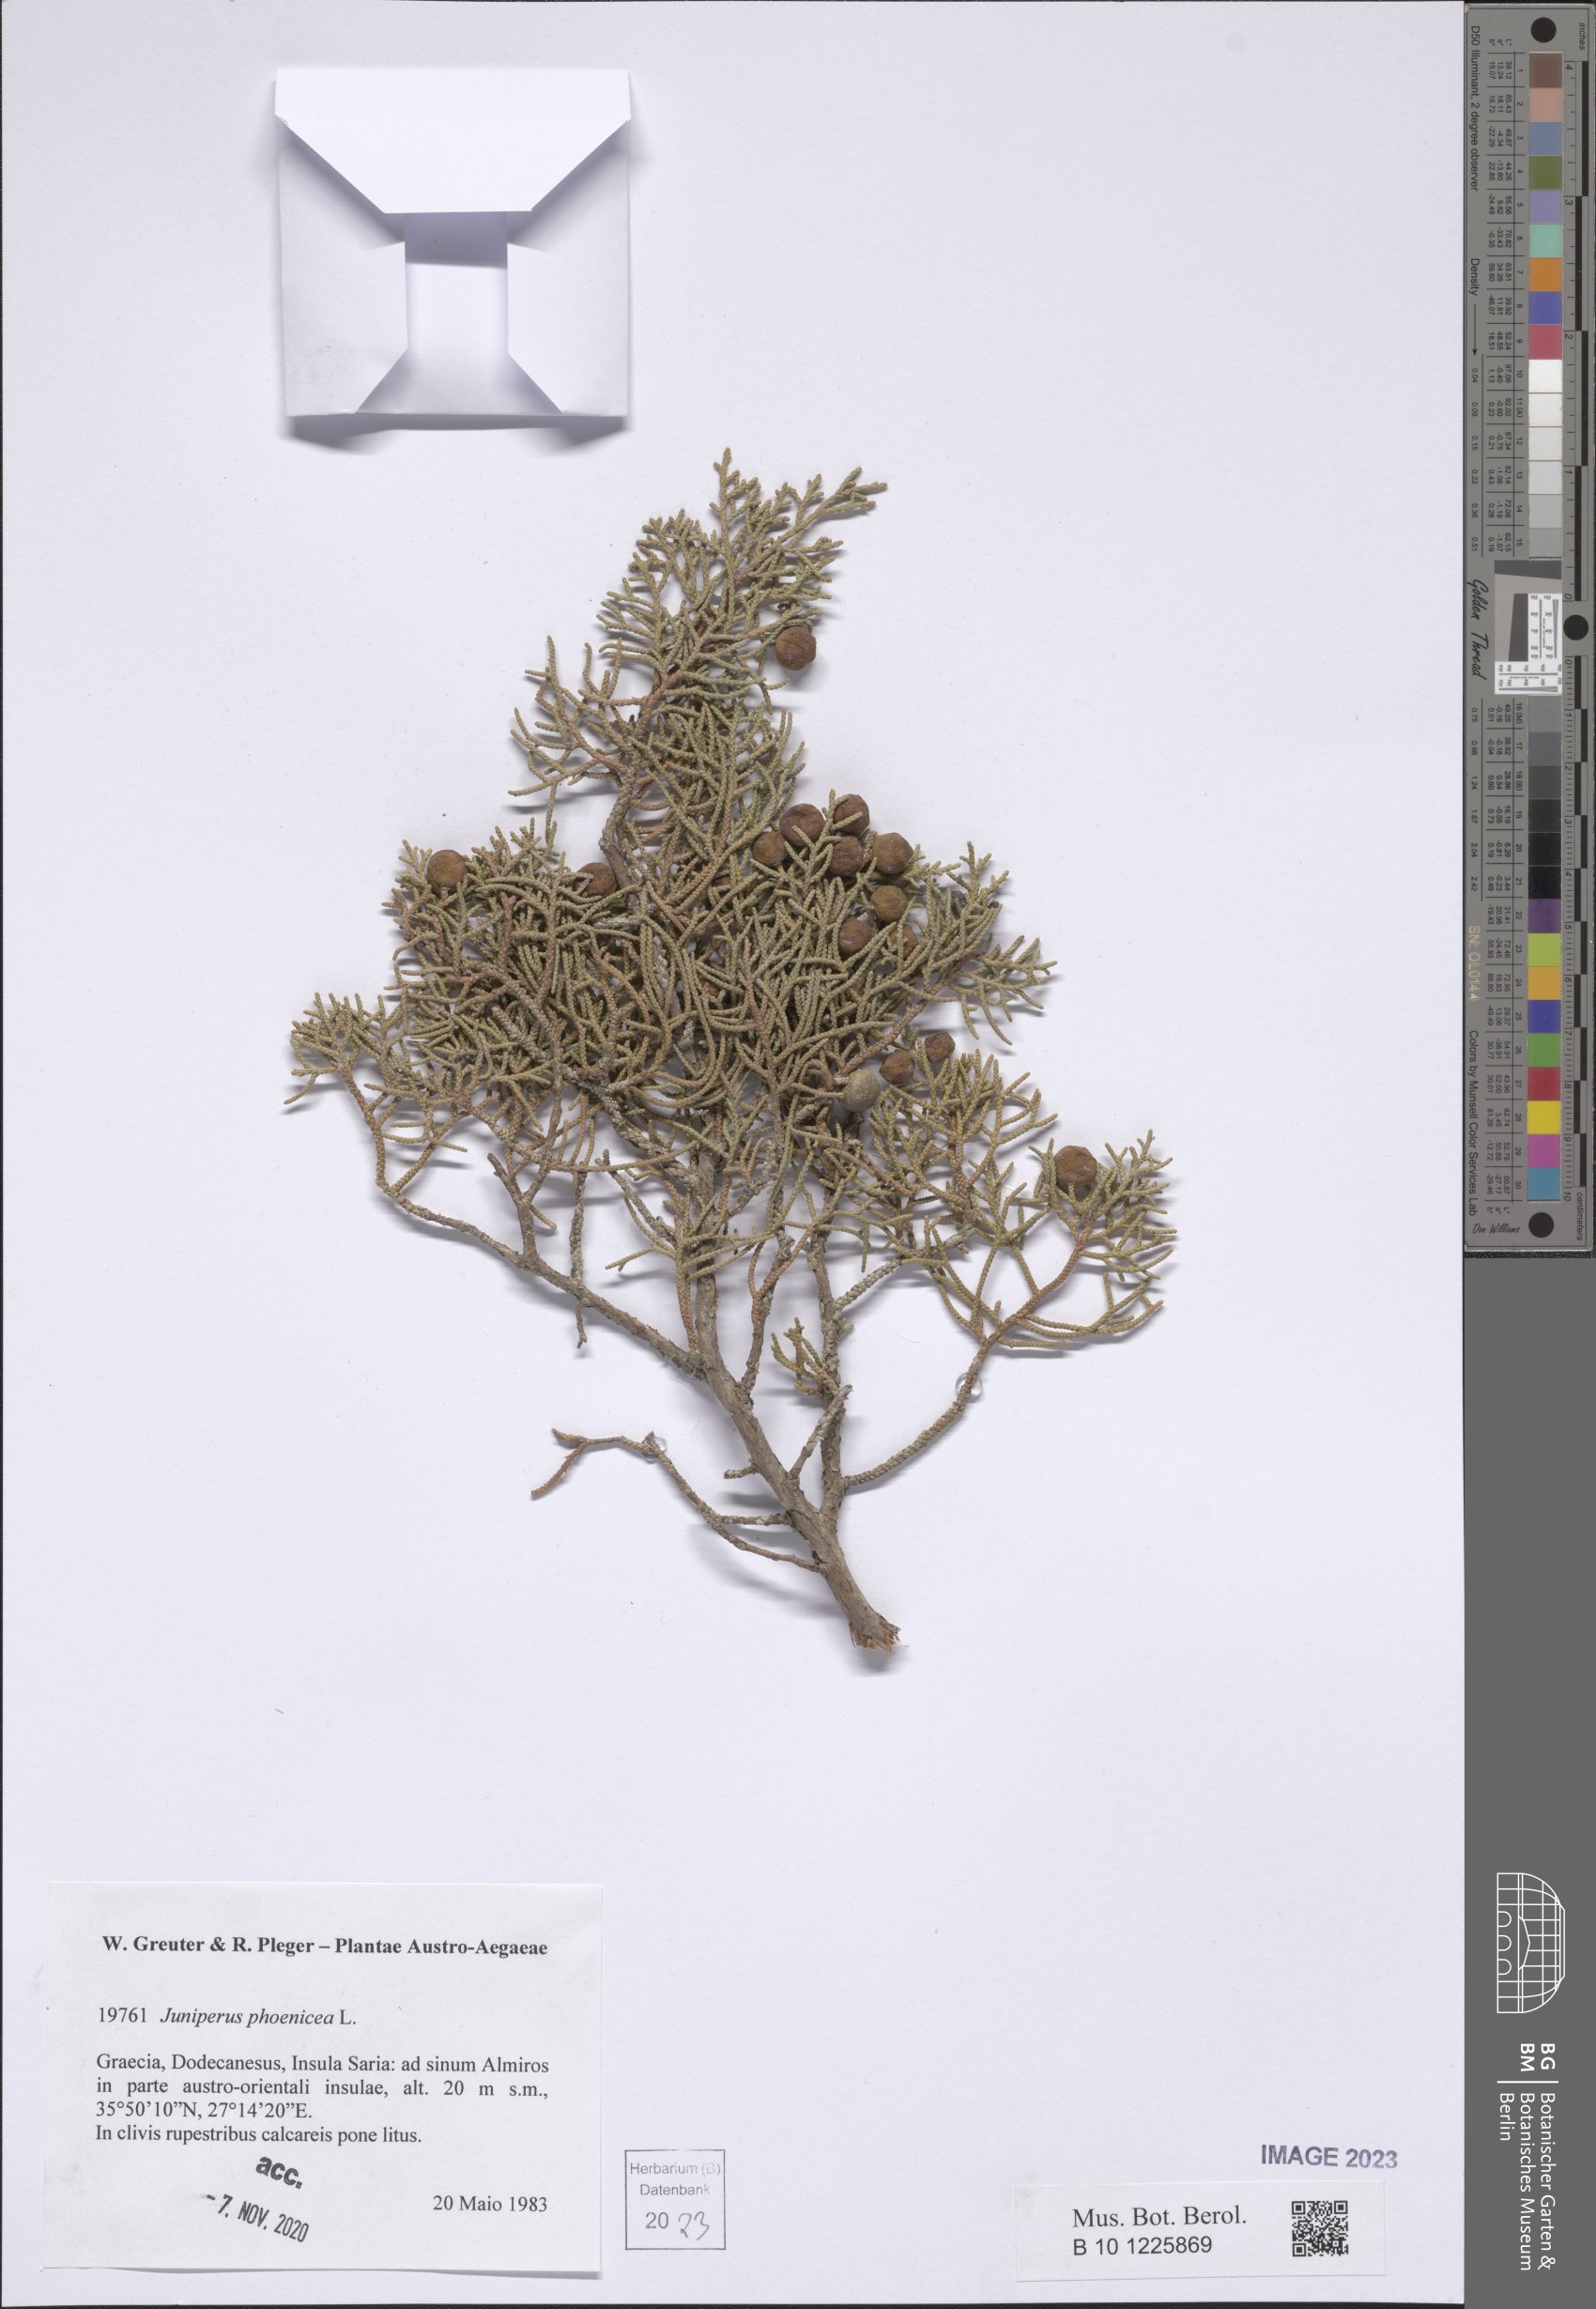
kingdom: Plantae
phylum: Tracheophyta
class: Pinopsida
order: Pinales
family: Cupressaceae
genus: Juniperus
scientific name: Juniperus phoenicea
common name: Phoenician juniper
